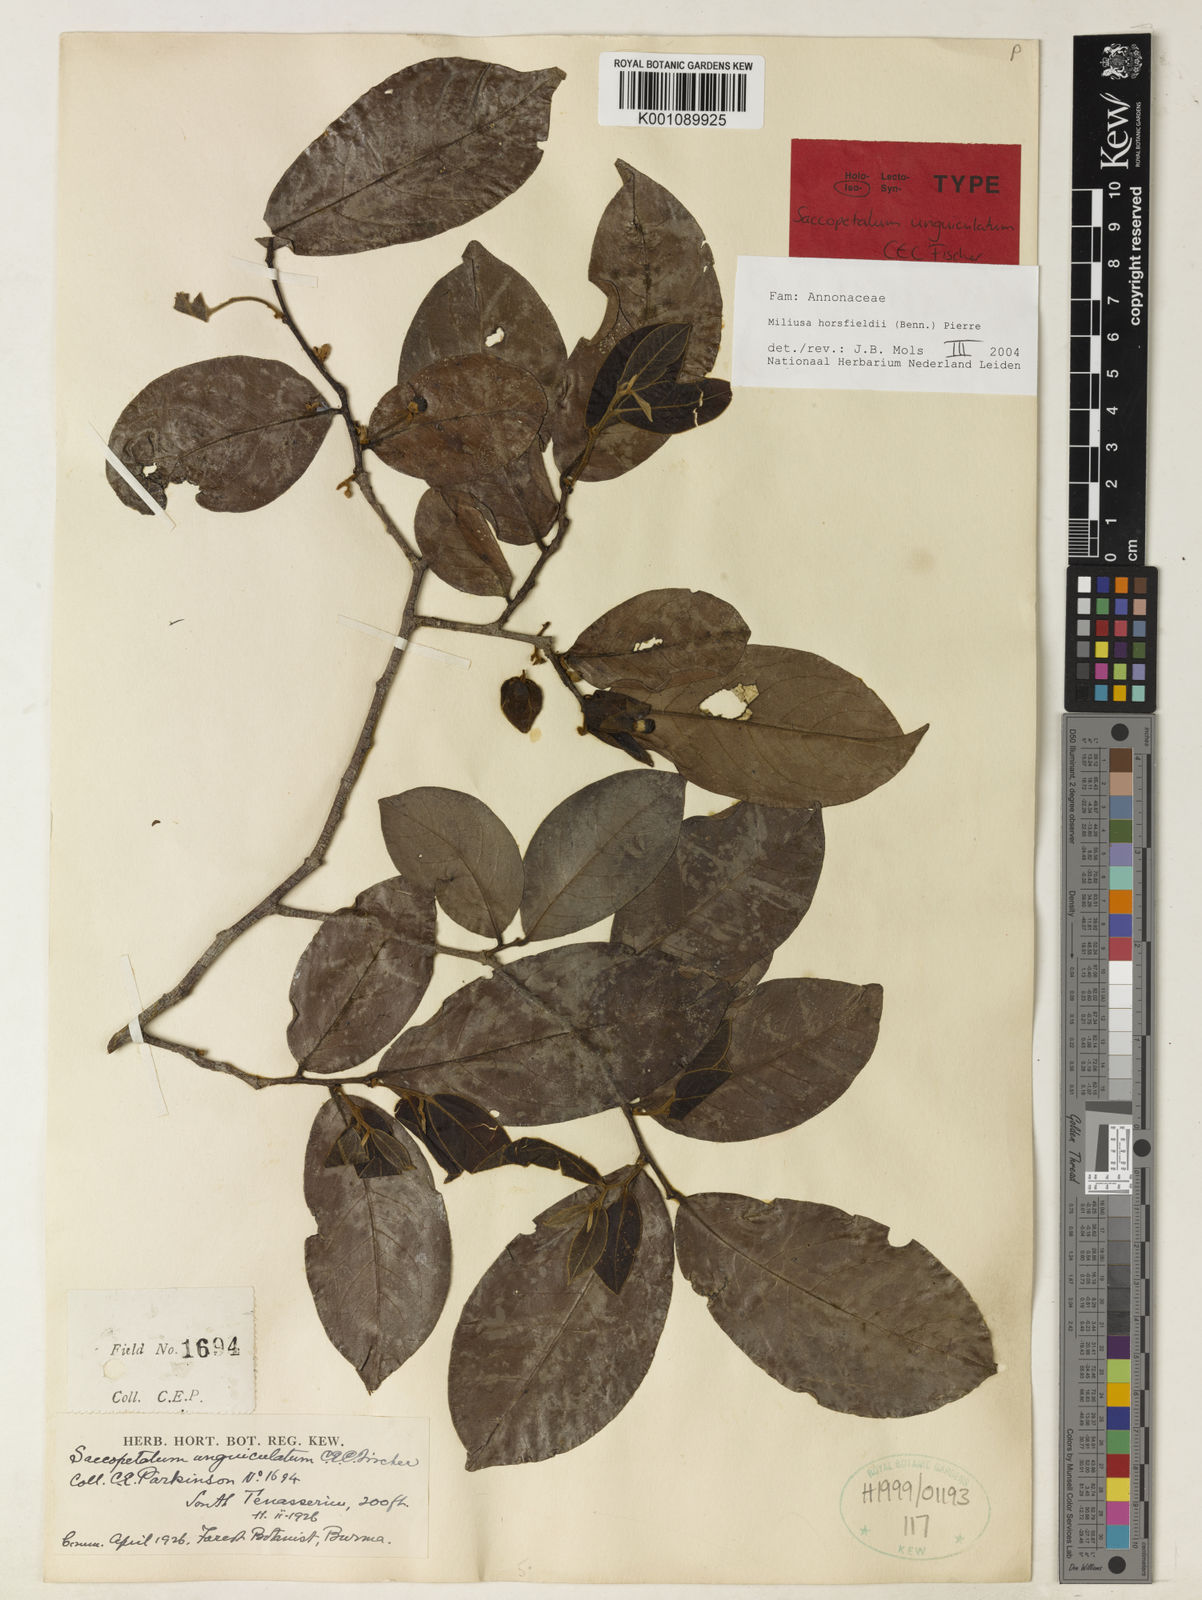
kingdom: Plantae
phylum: Tracheophyta
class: Magnoliopsida
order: Magnoliales
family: Annonaceae
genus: Miliusa
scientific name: Miliusa horsfieldii
